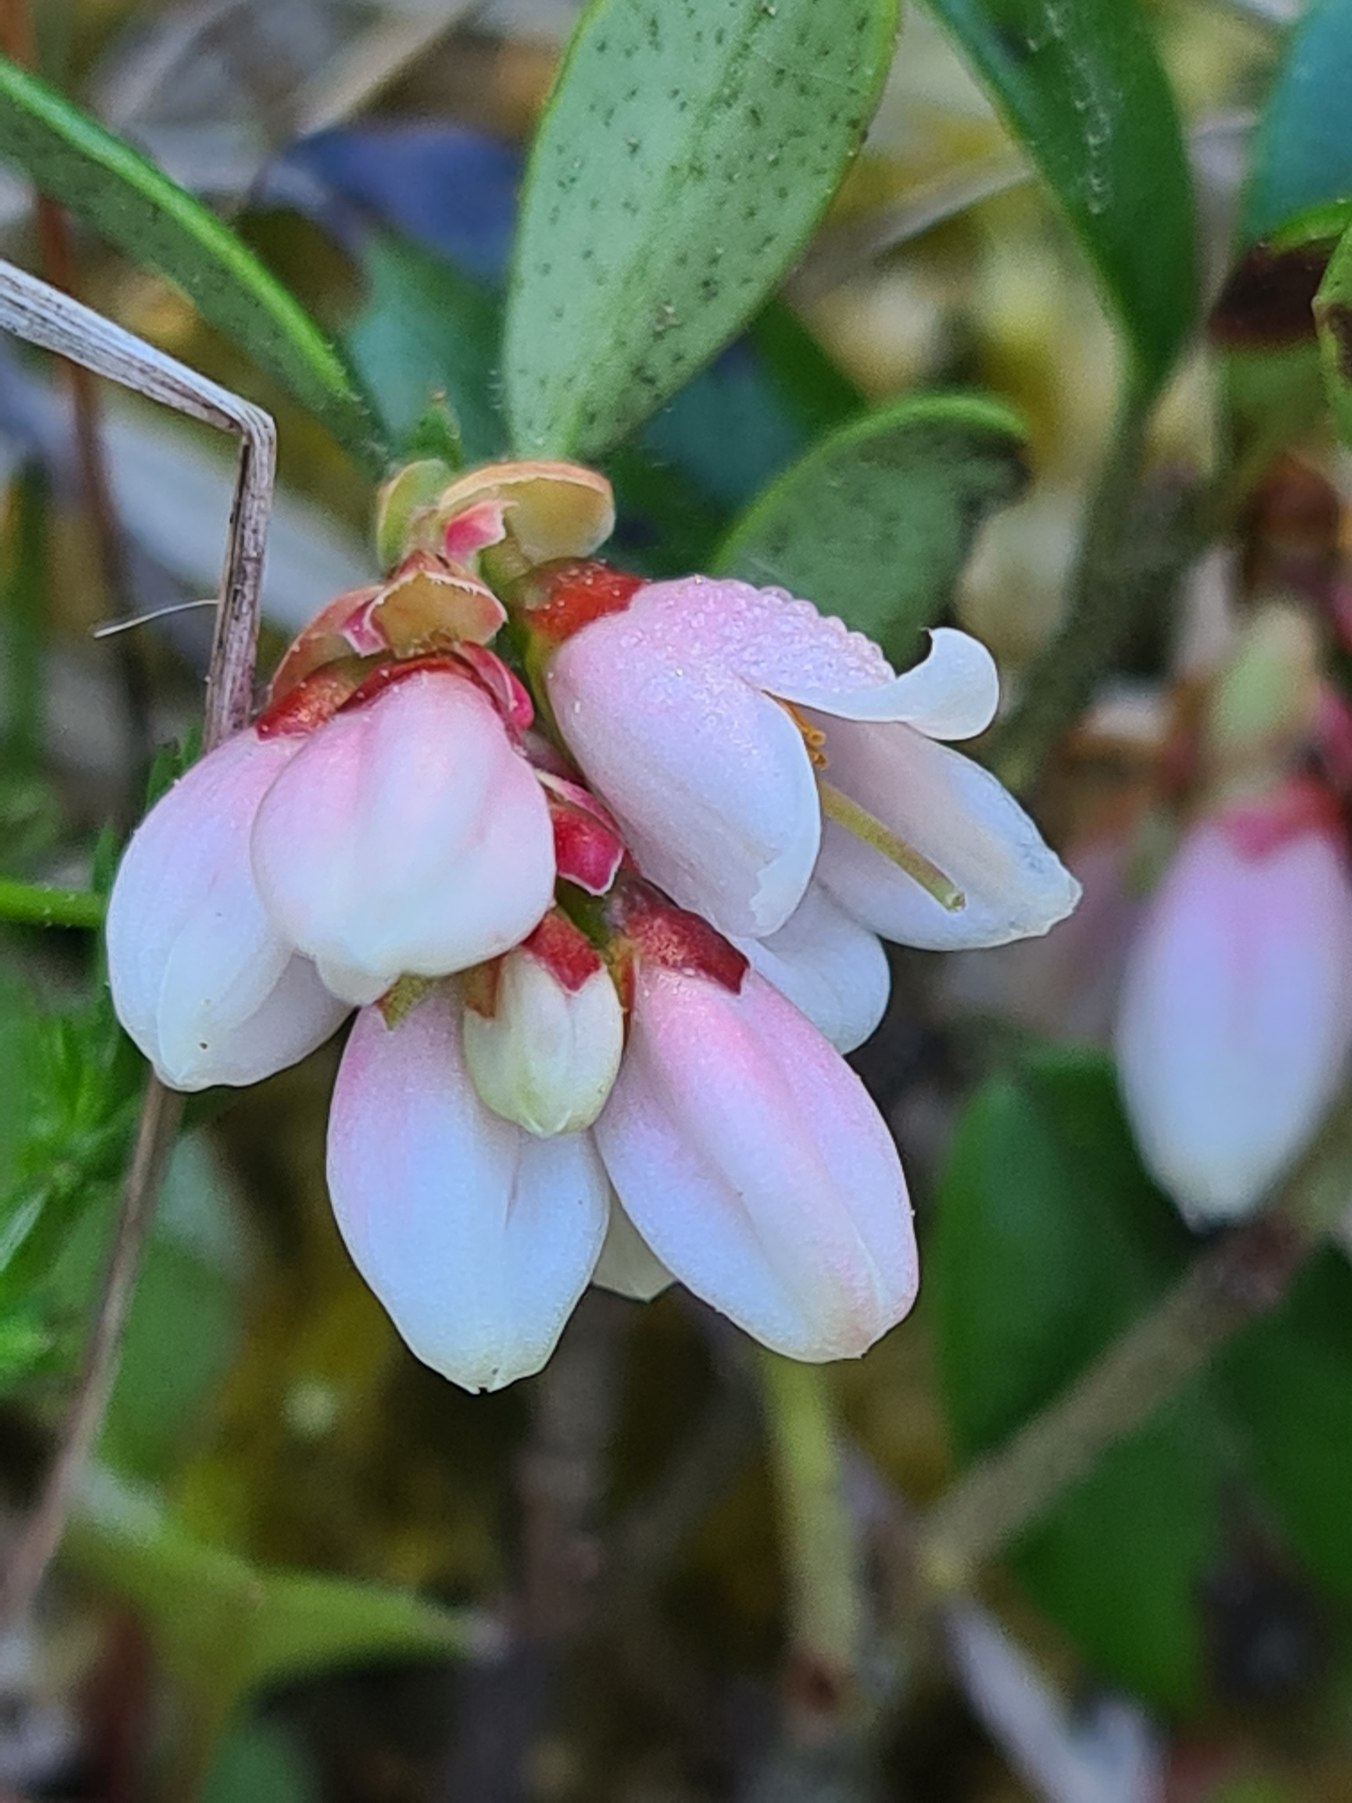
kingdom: Plantae
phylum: Tracheophyta
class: Magnoliopsida
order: Ericales
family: Ericaceae
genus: Vaccinium
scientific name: Vaccinium vitis-idaea
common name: Tyttebær
